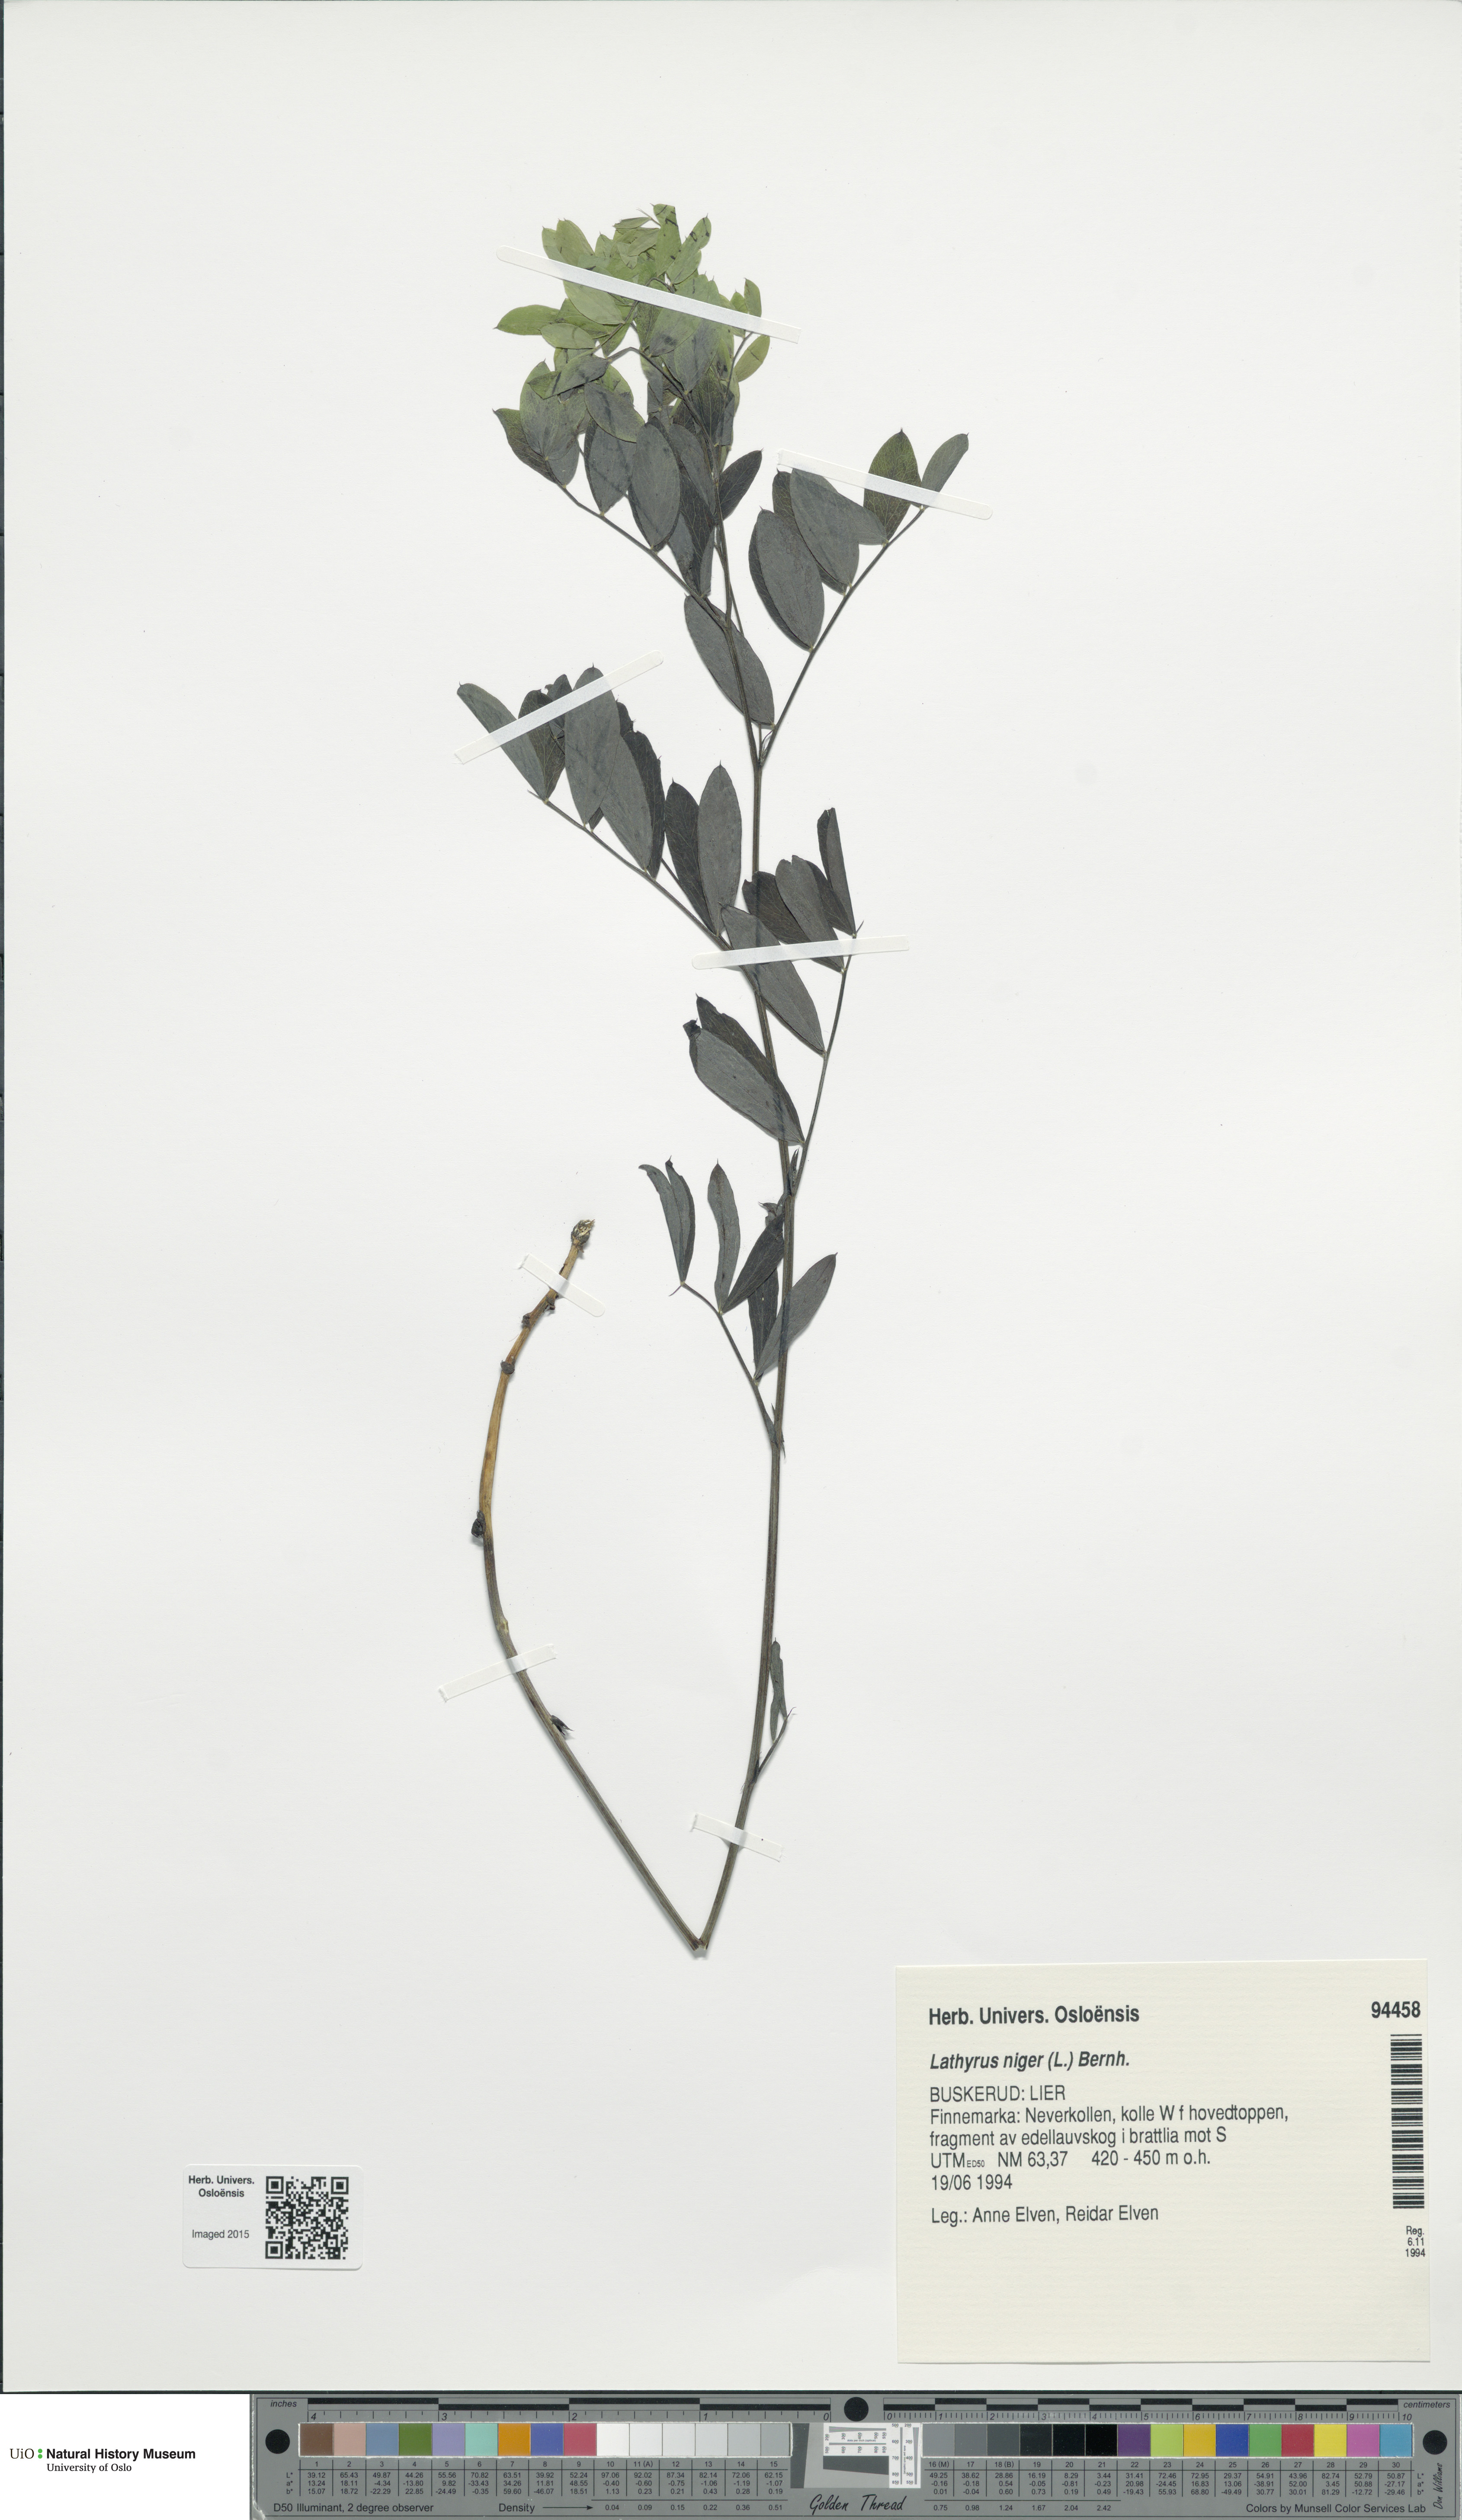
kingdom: Plantae
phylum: Tracheophyta
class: Magnoliopsida
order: Fabales
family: Fabaceae
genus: Lathyrus
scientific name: Lathyrus niger
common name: Black pea
